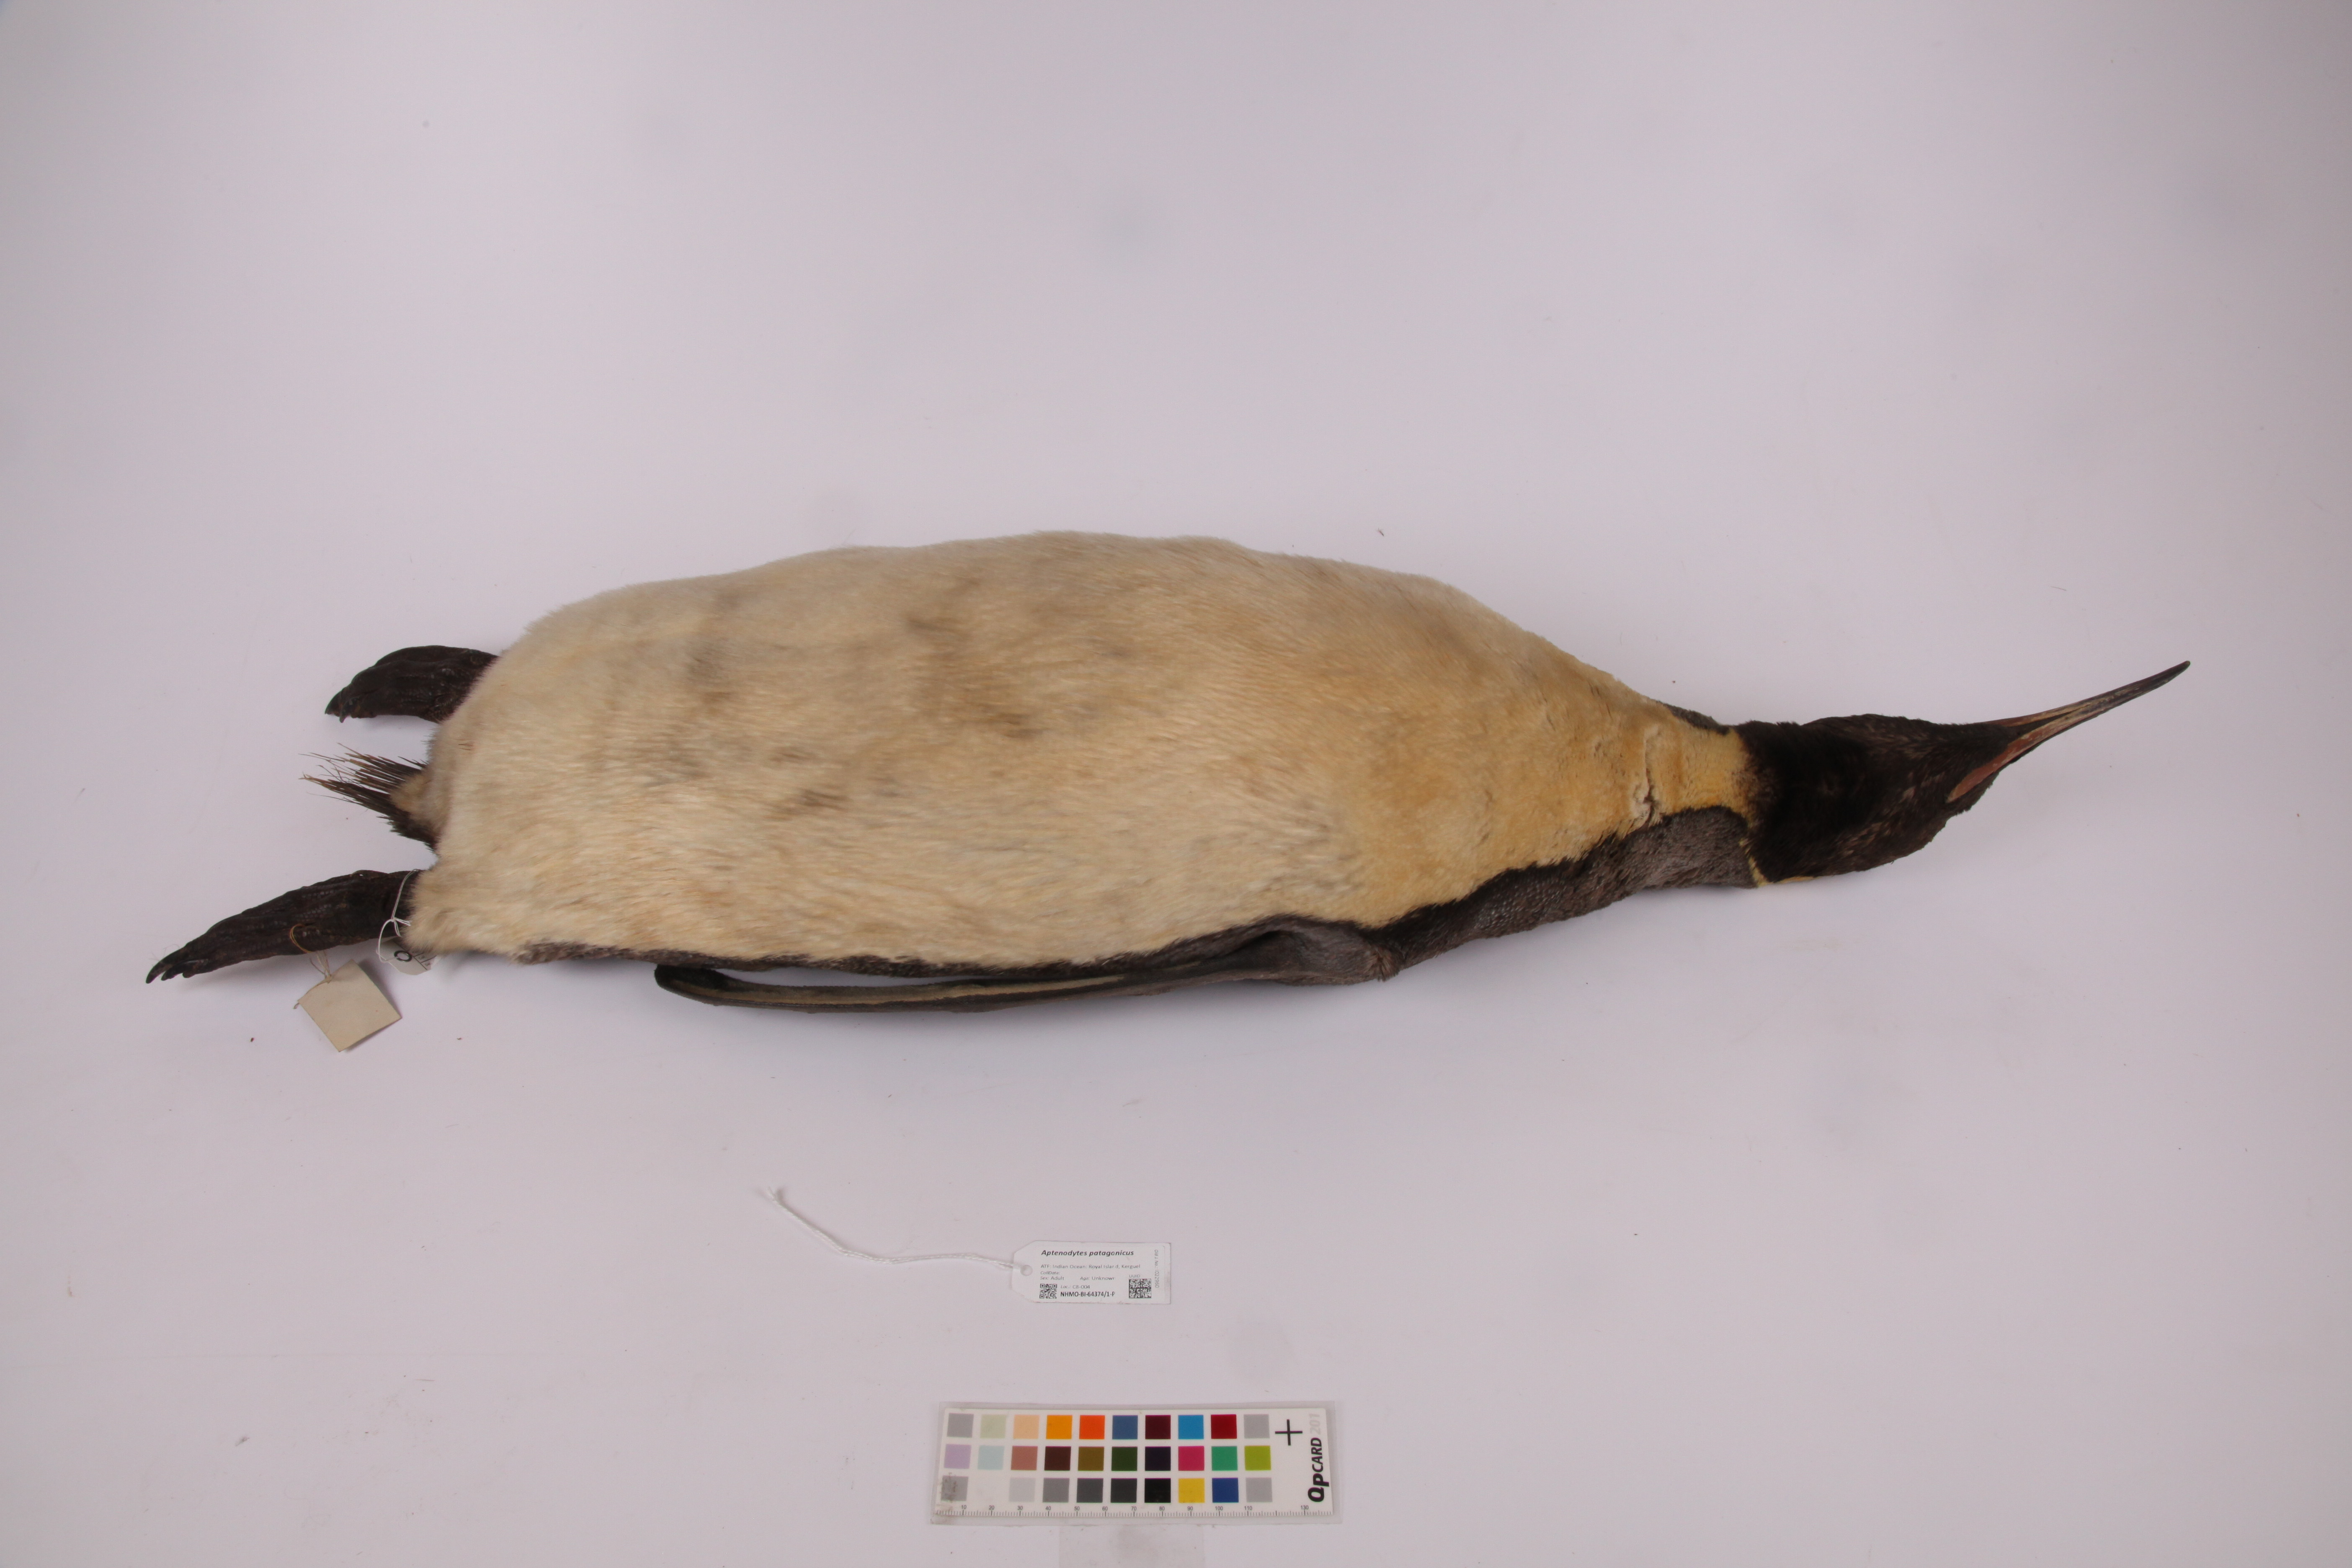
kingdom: Animalia
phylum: Chordata
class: Aves
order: Sphenisciformes
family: Spheniscidae
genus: Aptenodytes
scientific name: Aptenodytes patagonicus
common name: King penguin
